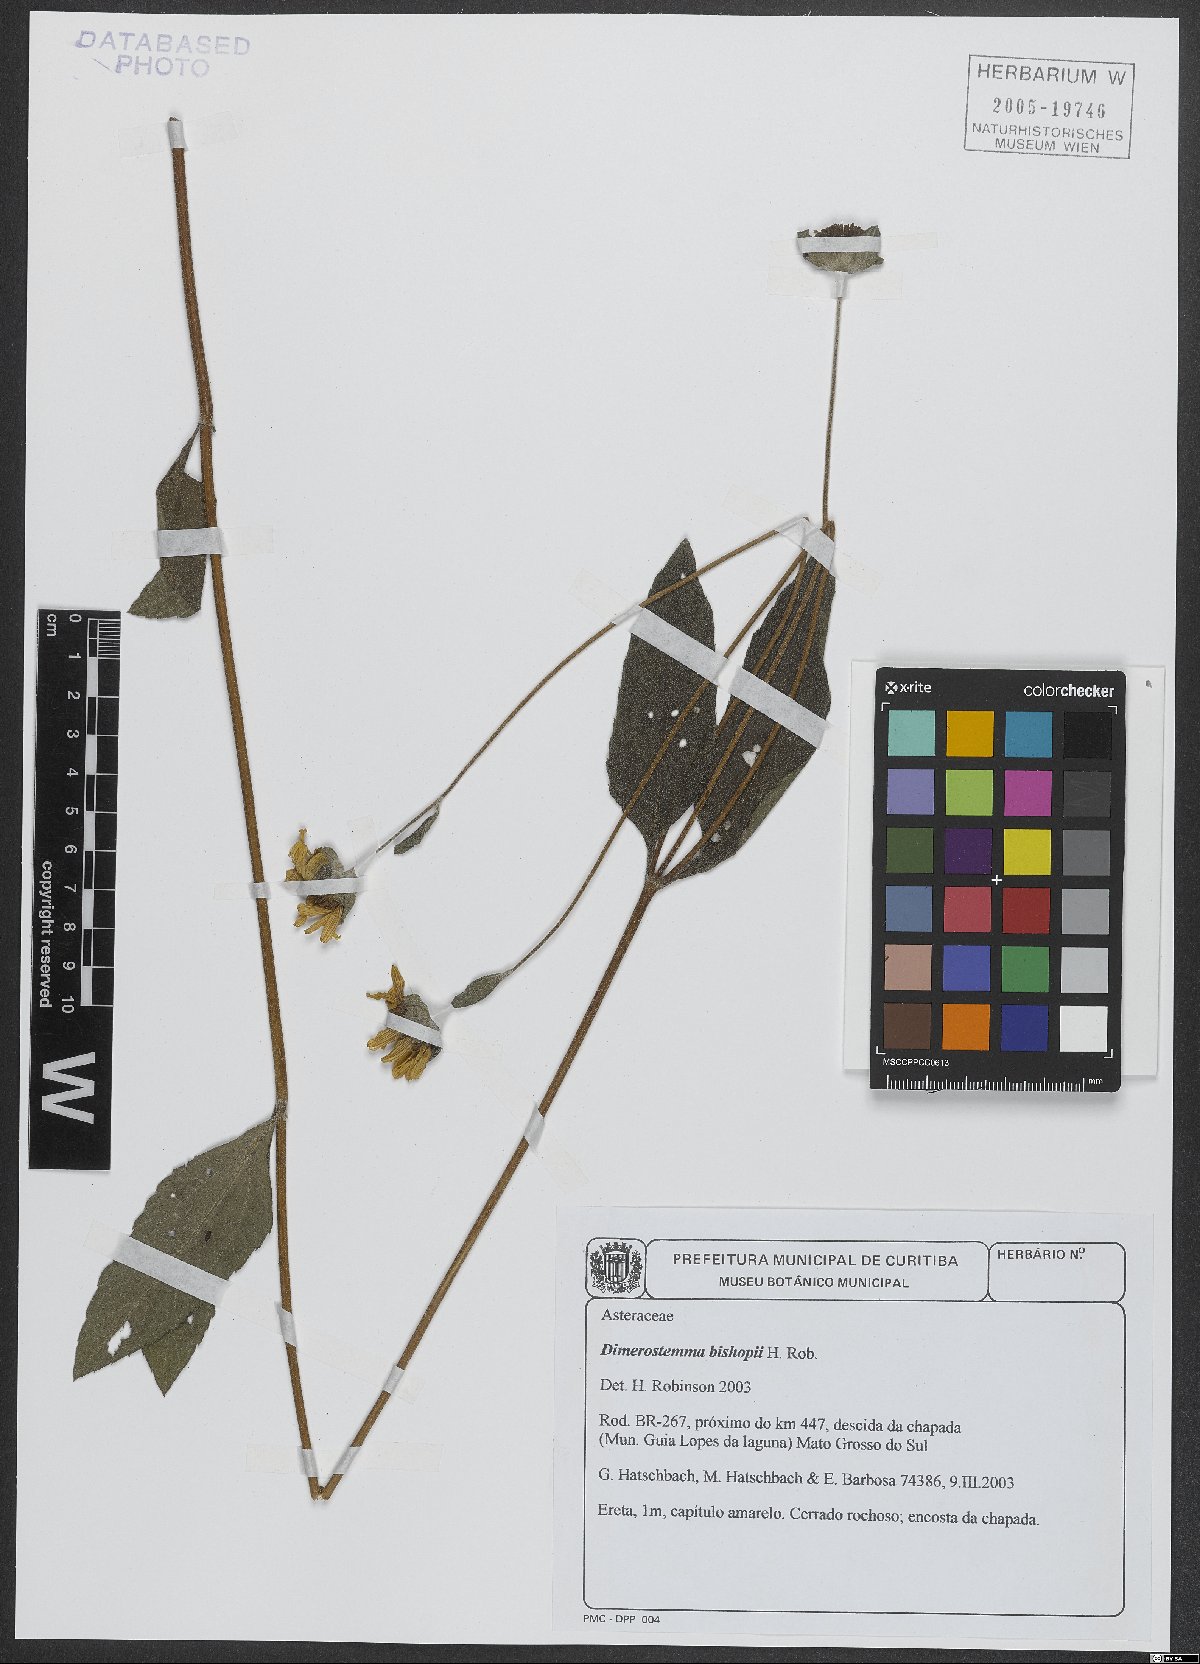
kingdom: Plantae
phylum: Tracheophyta
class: Magnoliopsida
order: Asterales
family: Asteraceae
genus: Dimerostemma
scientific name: Dimerostemma bishopii
